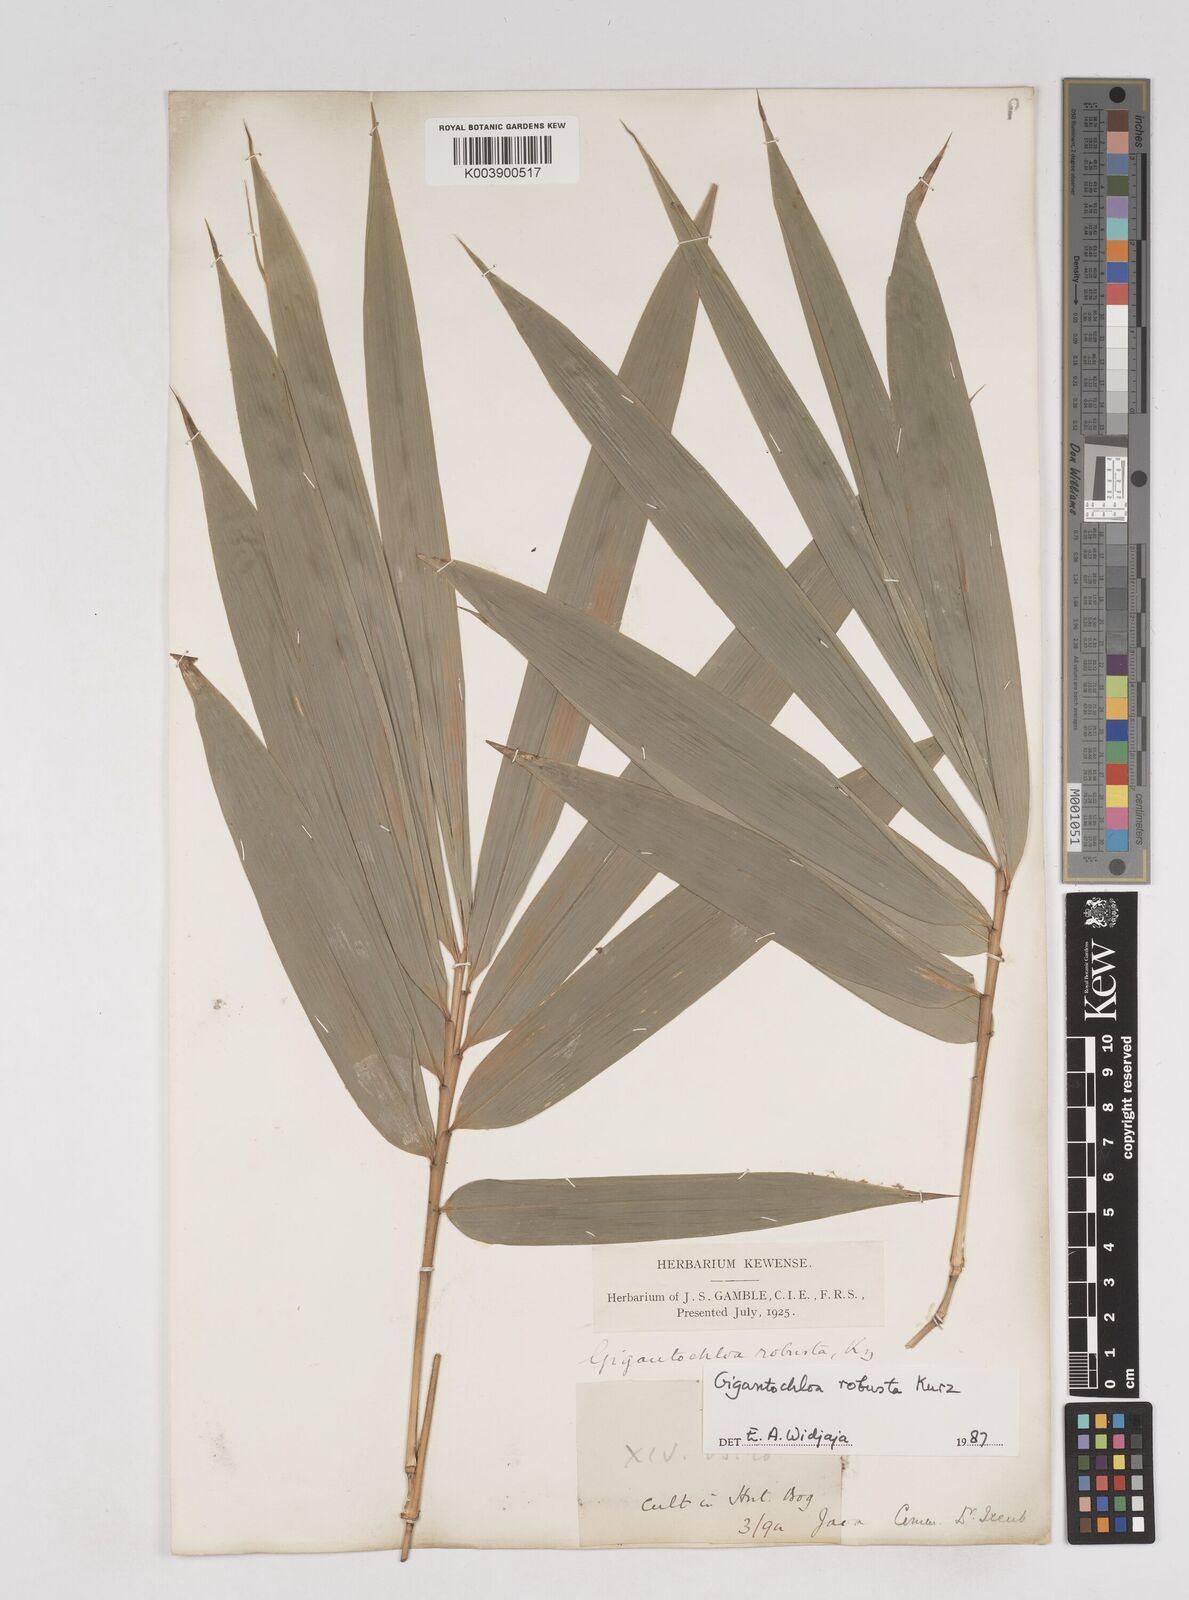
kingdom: Plantae
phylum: Tracheophyta
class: Liliopsida
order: Poales
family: Poaceae
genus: Gigantochloa
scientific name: Gigantochloa robusta
